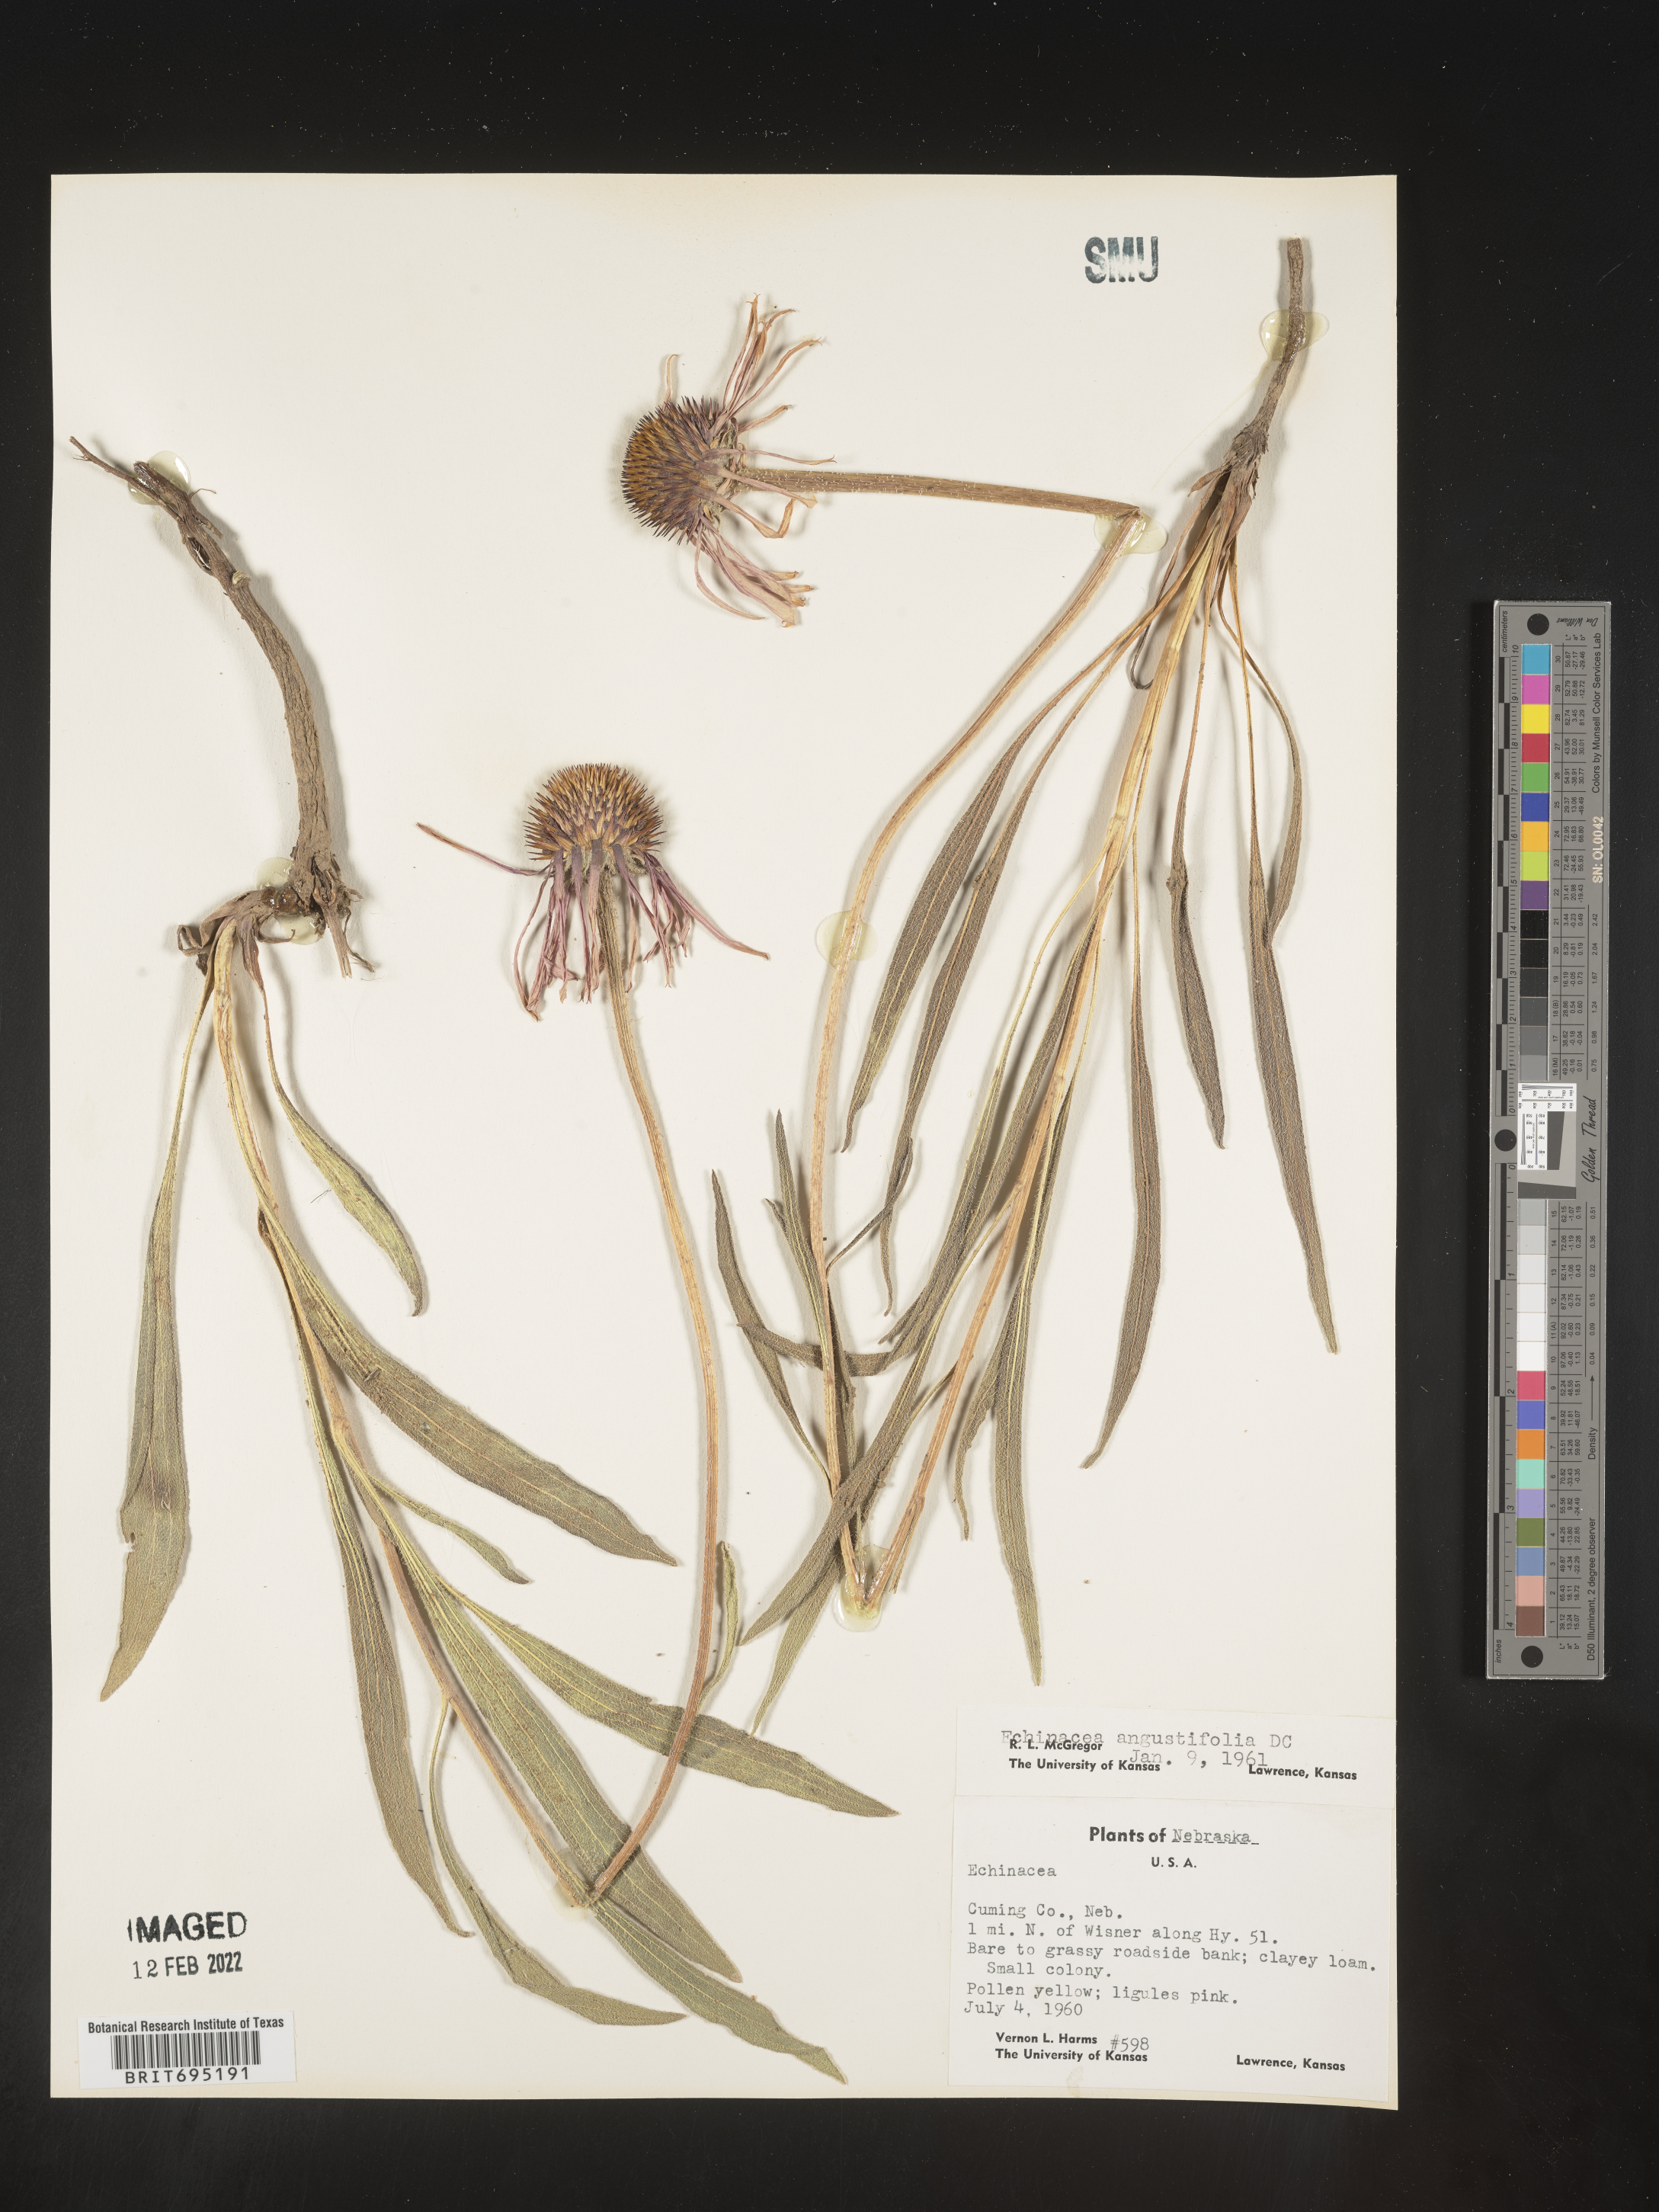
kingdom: Plantae
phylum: Tracheophyta
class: Magnoliopsida
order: Asterales
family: Asteraceae
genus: Echinacea
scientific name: Echinacea angustifolia
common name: Black-sampson echinacea
